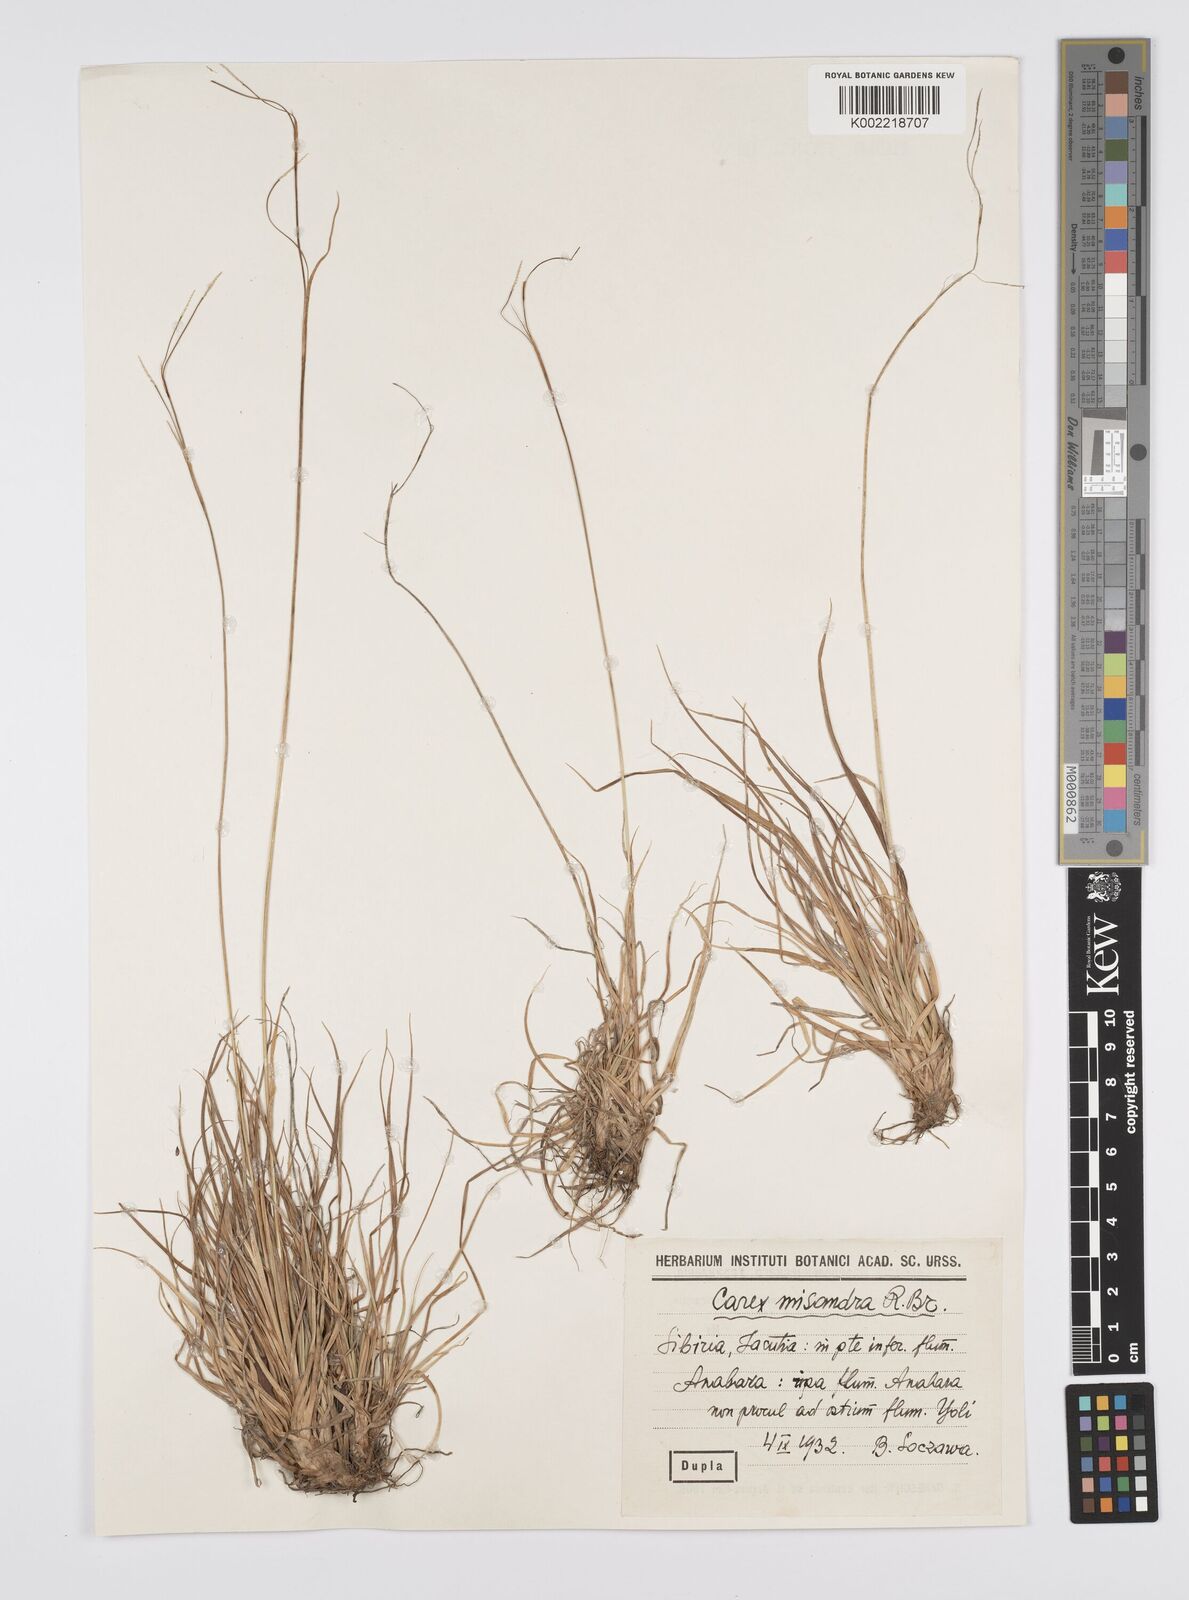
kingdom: Plantae
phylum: Tracheophyta
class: Liliopsida
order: Poales
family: Cyperaceae
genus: Carex
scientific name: Carex fuliginosa
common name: Few-flowered sedge
